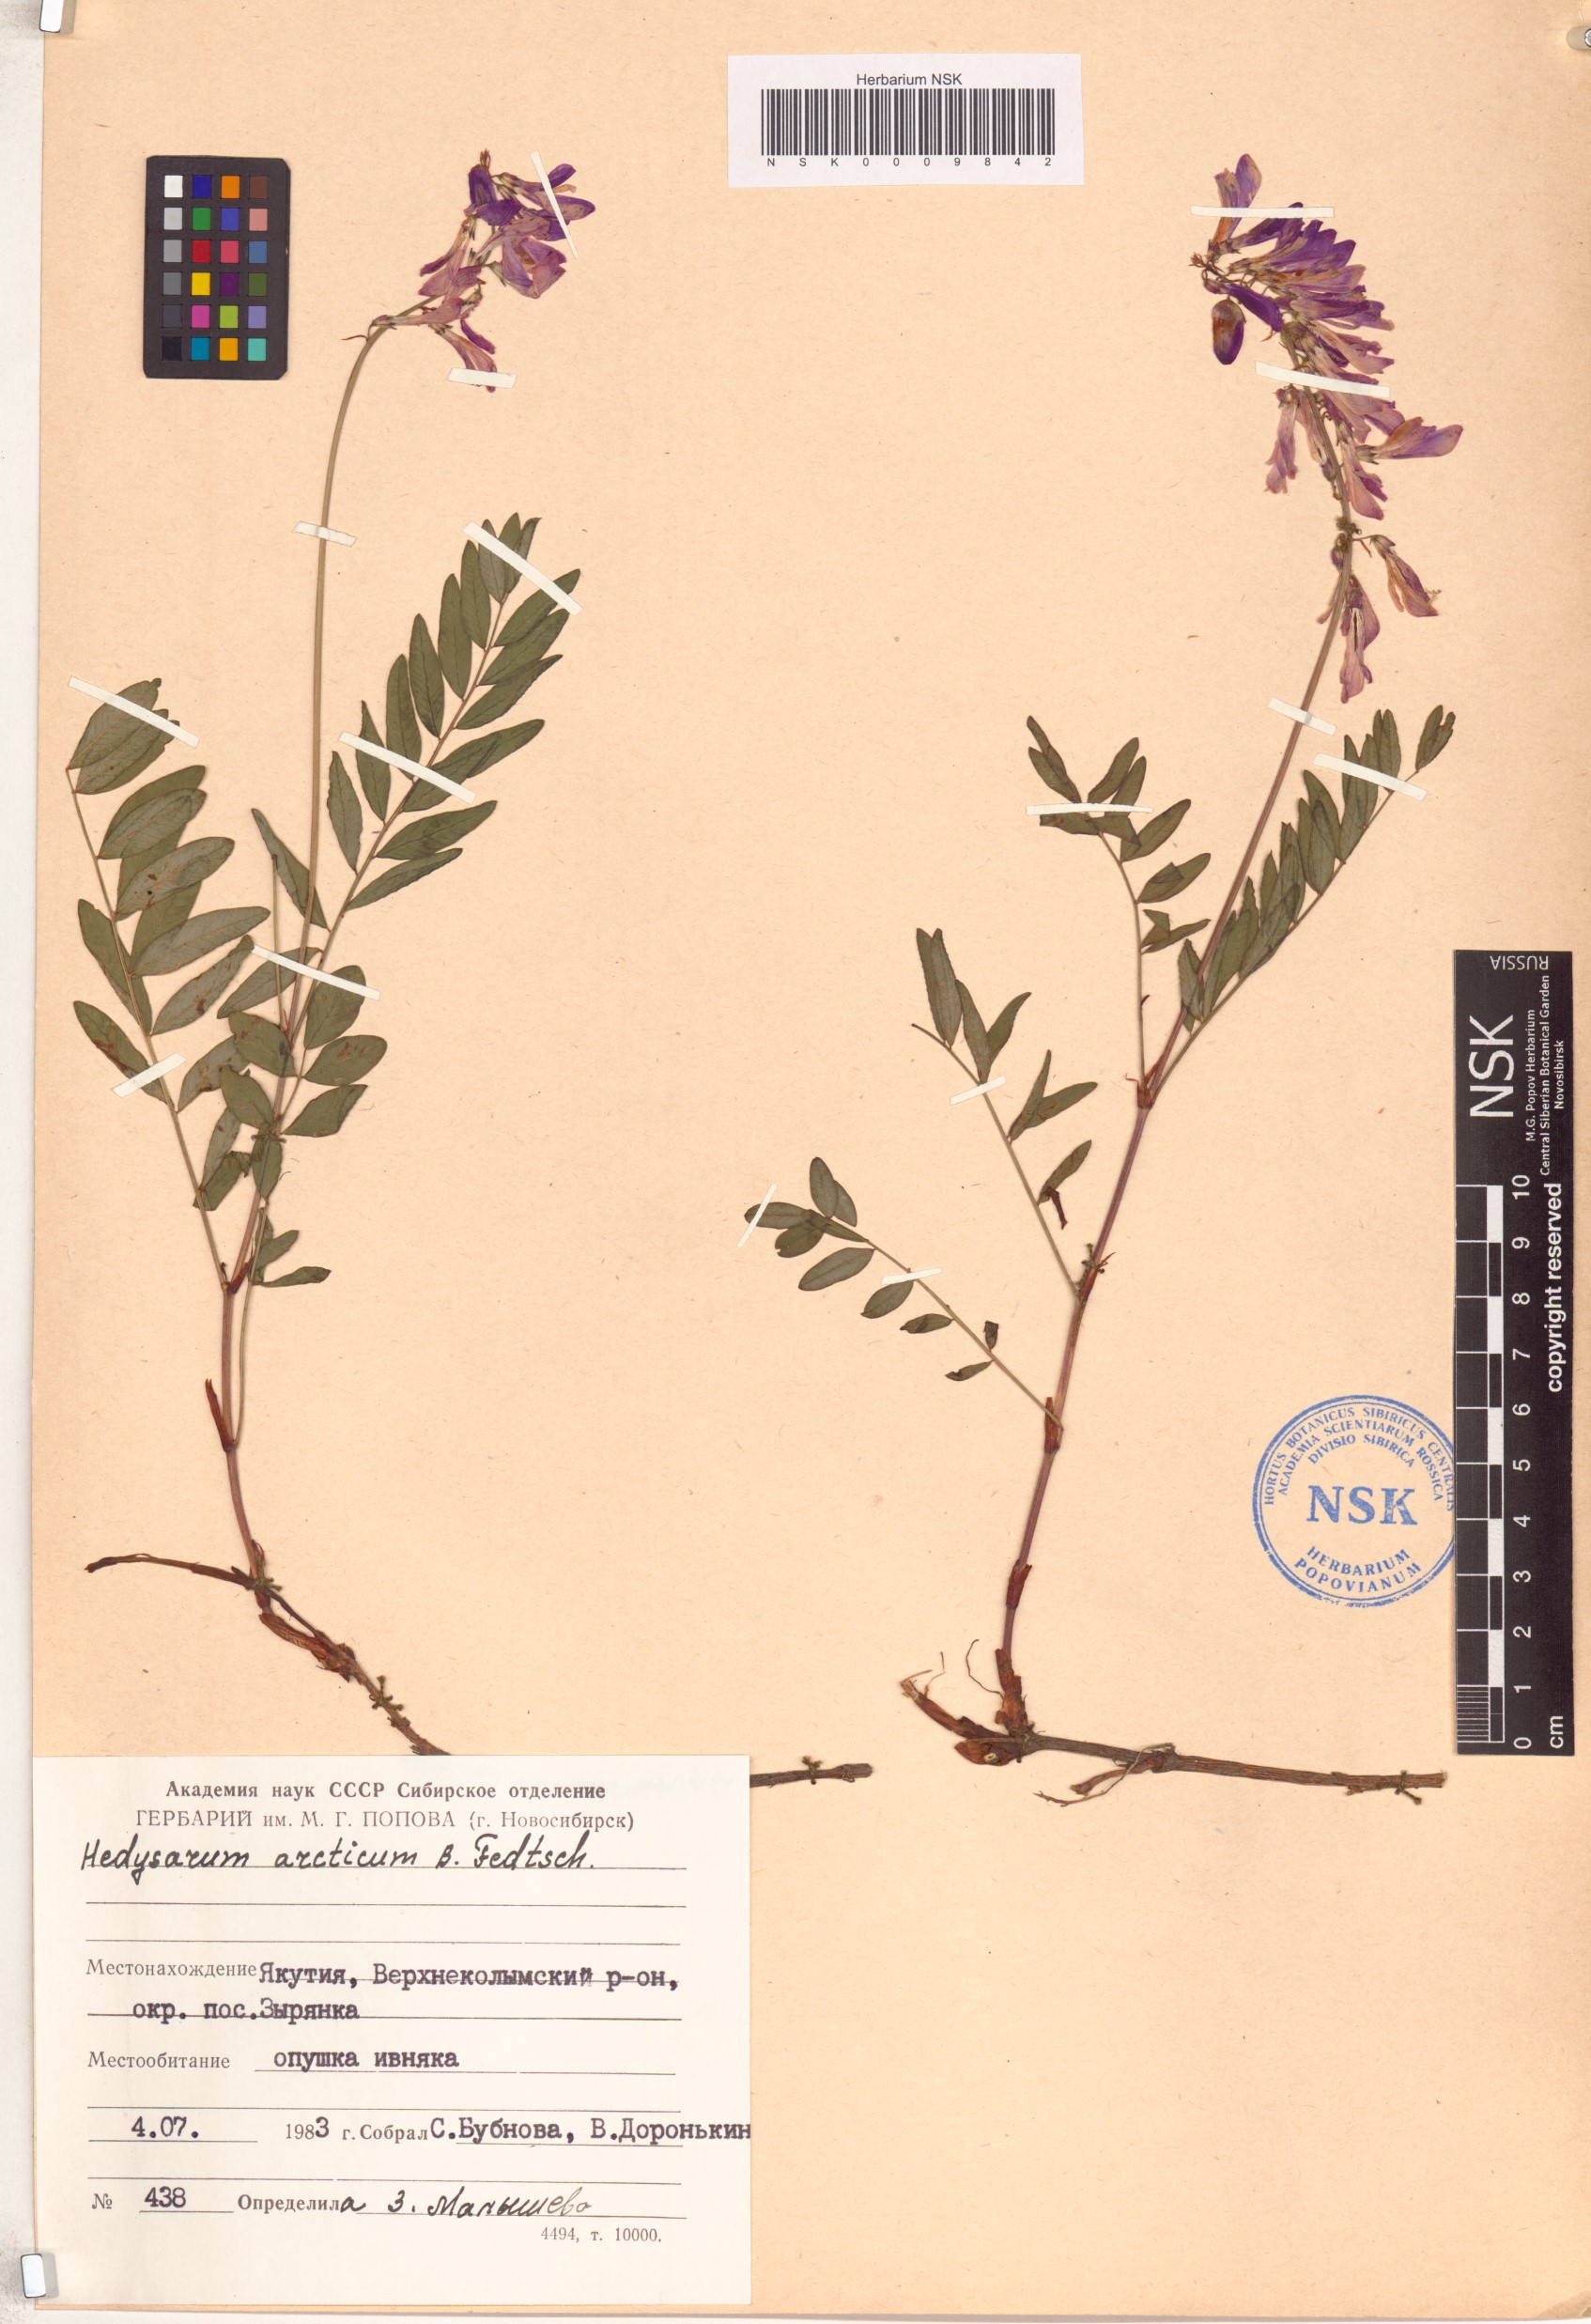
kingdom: Plantae
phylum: Tracheophyta
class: Magnoliopsida
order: Fabales
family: Fabaceae
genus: Hedysarum
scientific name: Hedysarum hedysaroides
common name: Alpine french-honeysuckle
